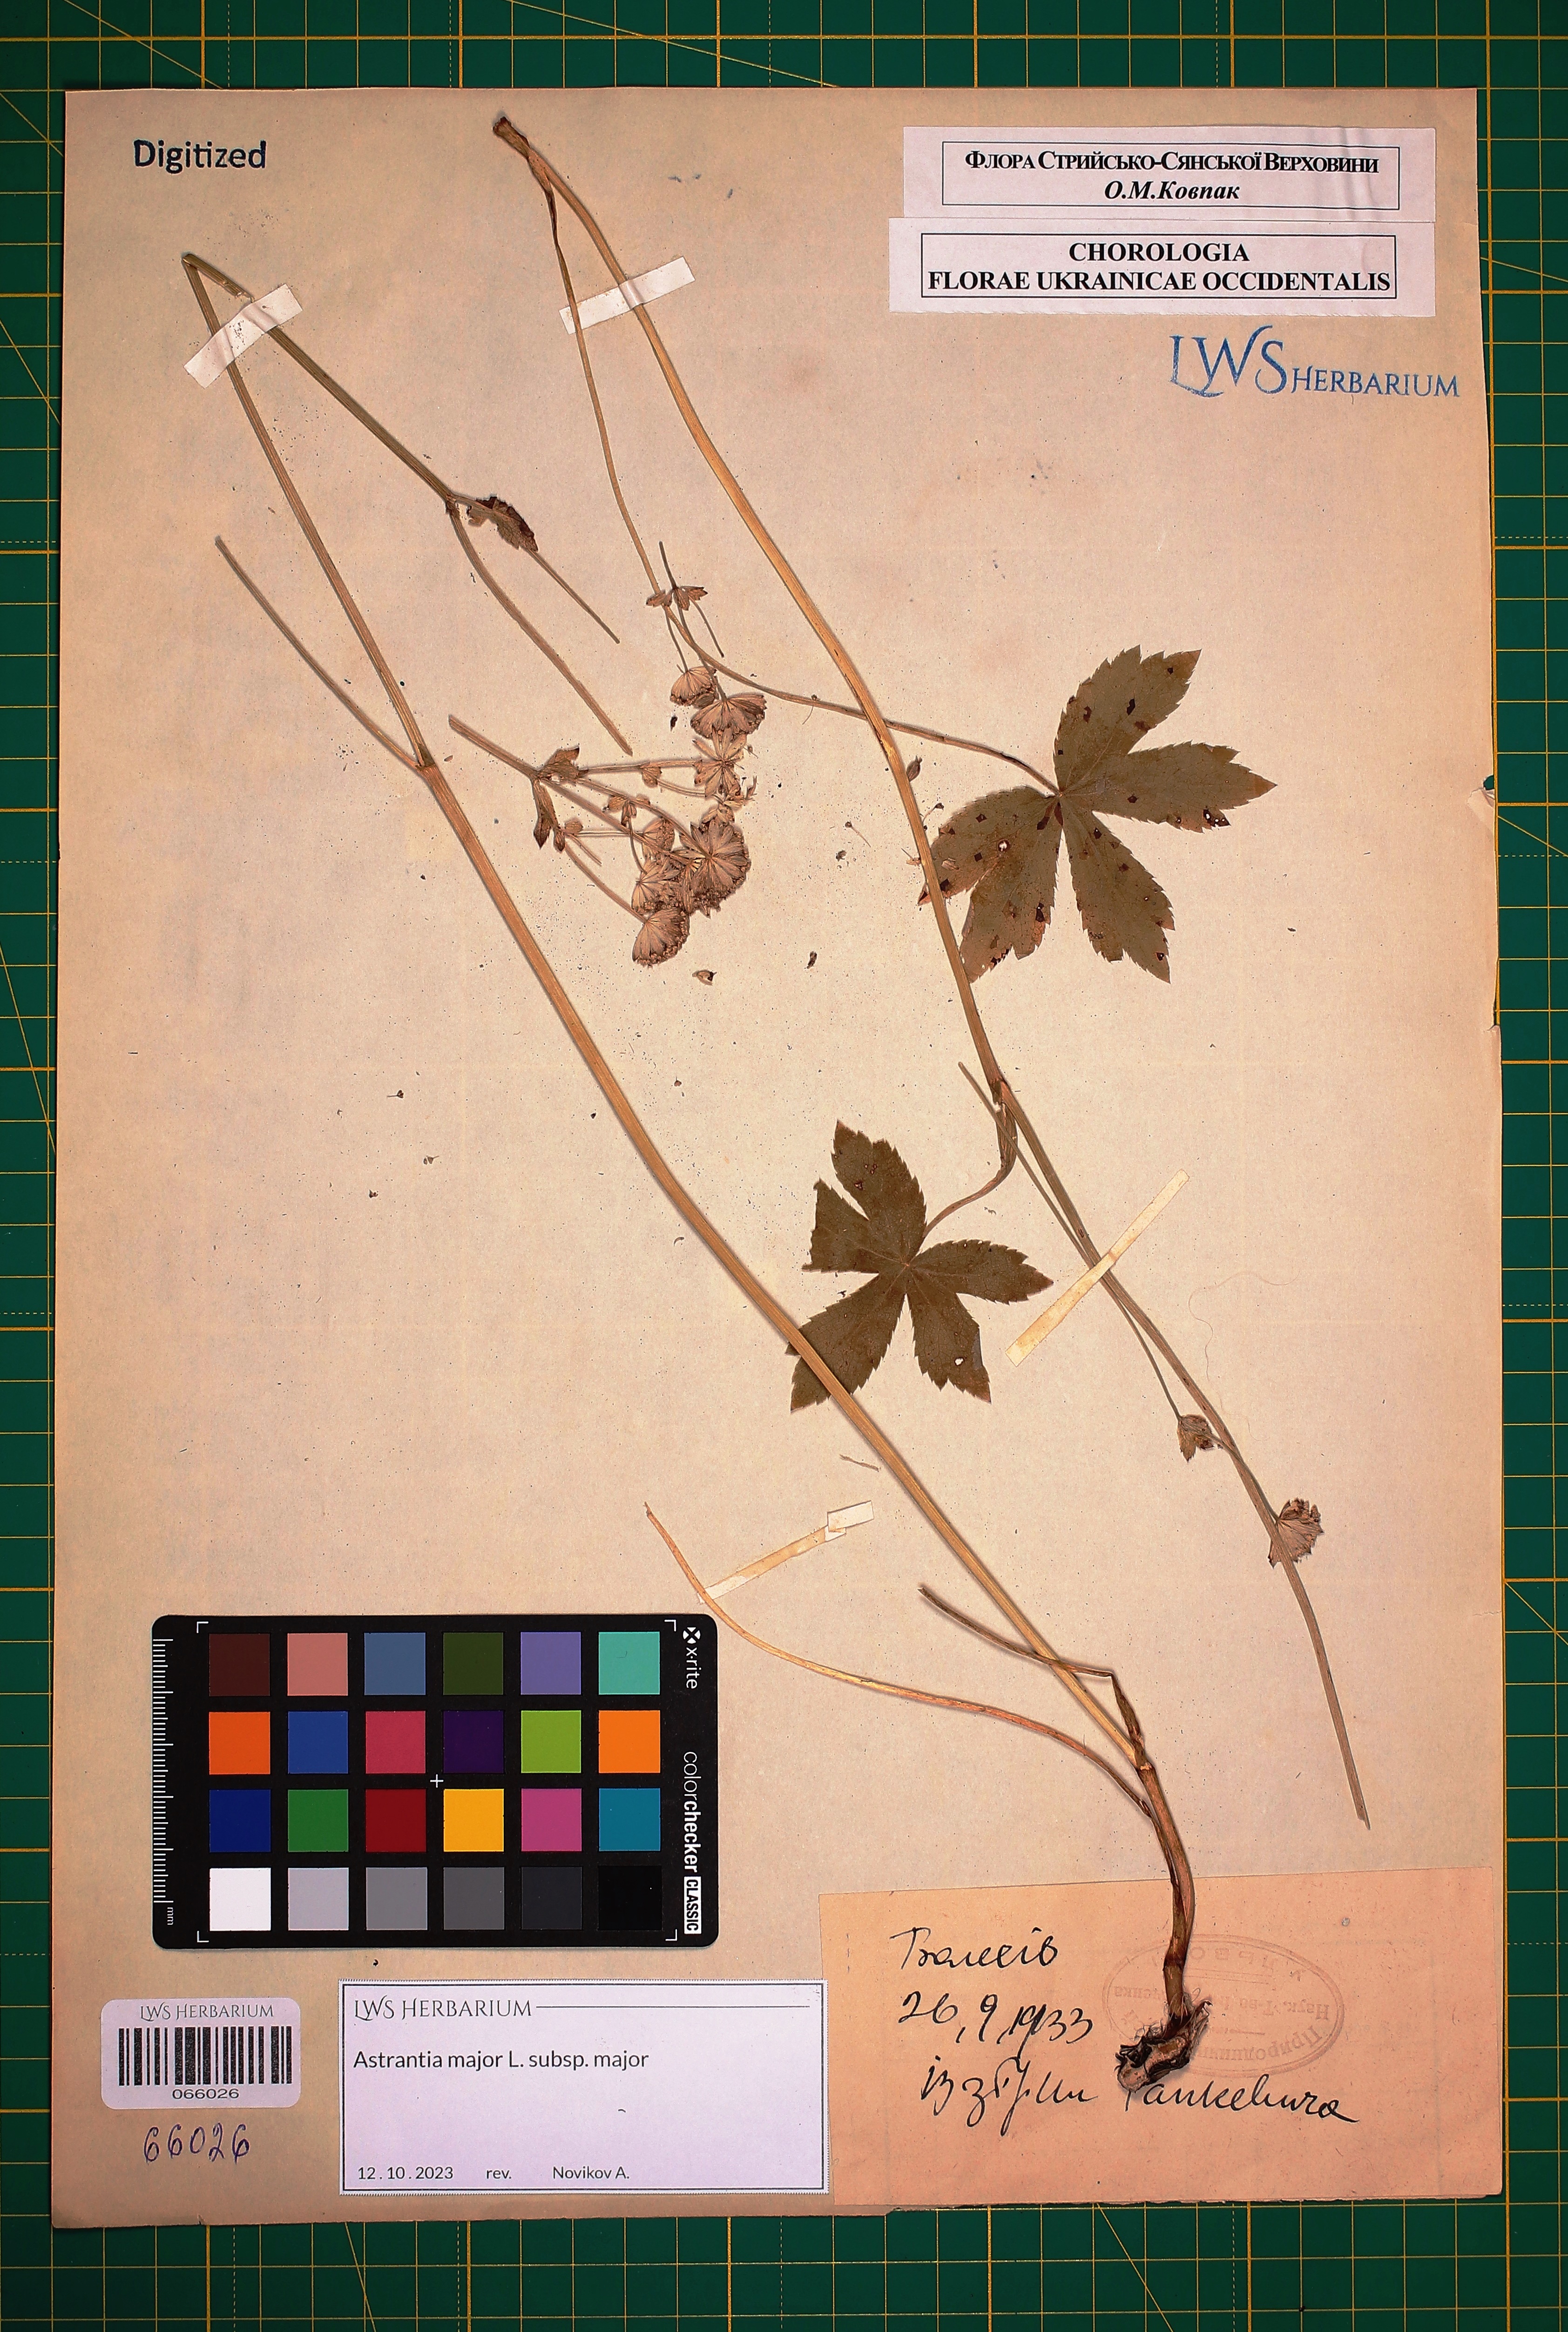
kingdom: Plantae
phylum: Tracheophyta
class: Magnoliopsida
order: Apiales
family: Apiaceae
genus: Astrantia
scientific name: Astrantia major
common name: Greater masterwort
